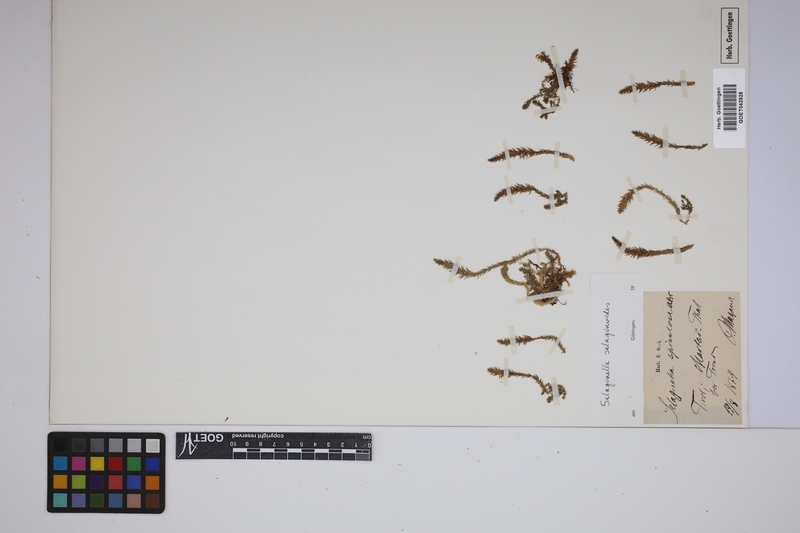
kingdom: Plantae
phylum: Tracheophyta
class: Lycopodiopsida
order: Selaginellales
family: Selaginellaceae
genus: Selaginella
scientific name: Selaginella selaginoides
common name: Prickly mountain-moss
